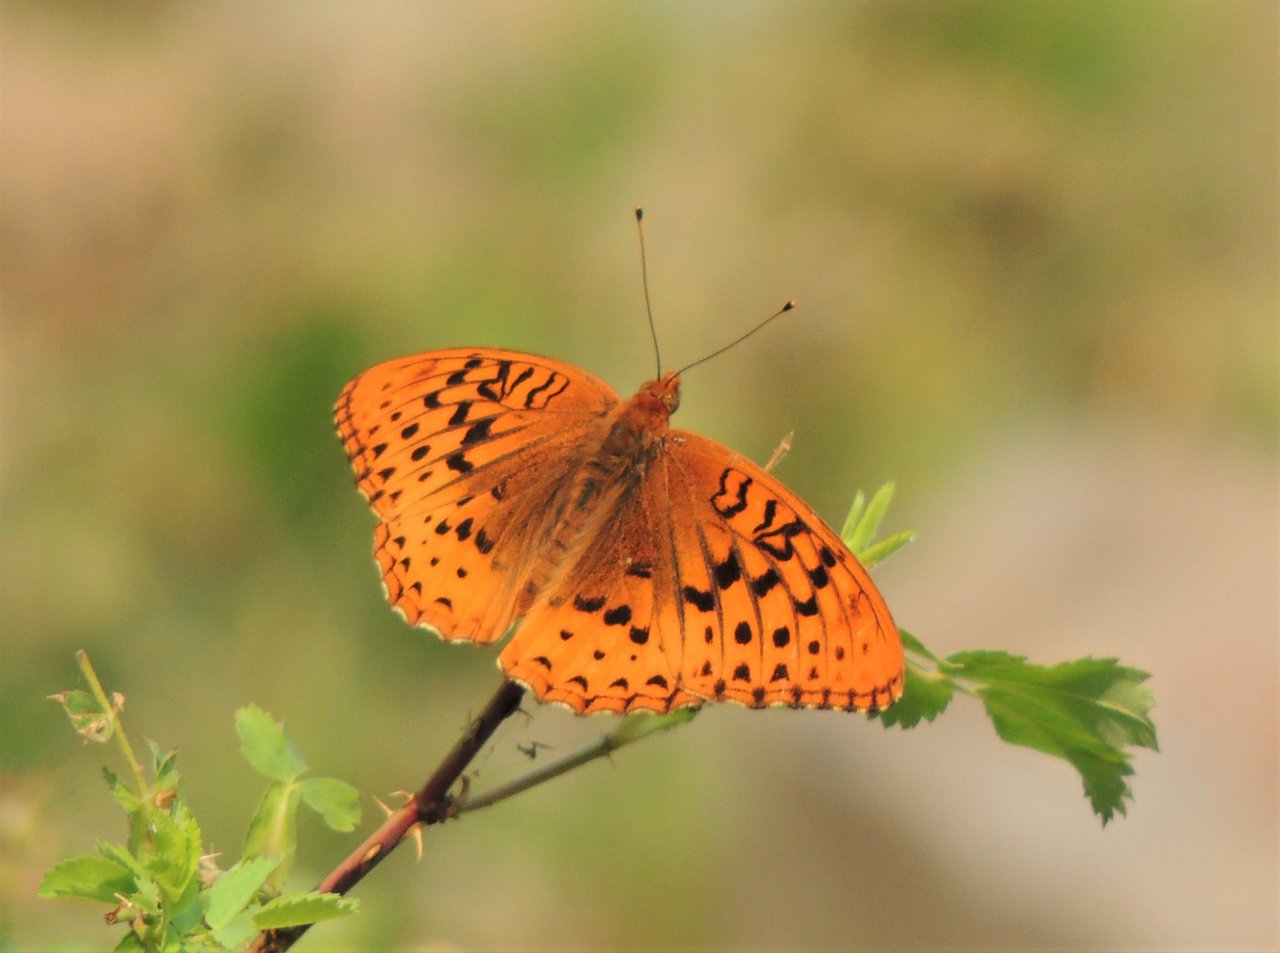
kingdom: Animalia
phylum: Arthropoda
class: Insecta
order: Lepidoptera
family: Nymphalidae
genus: Speyeria
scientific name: Speyeria cybele
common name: Great Spangled Fritillary
